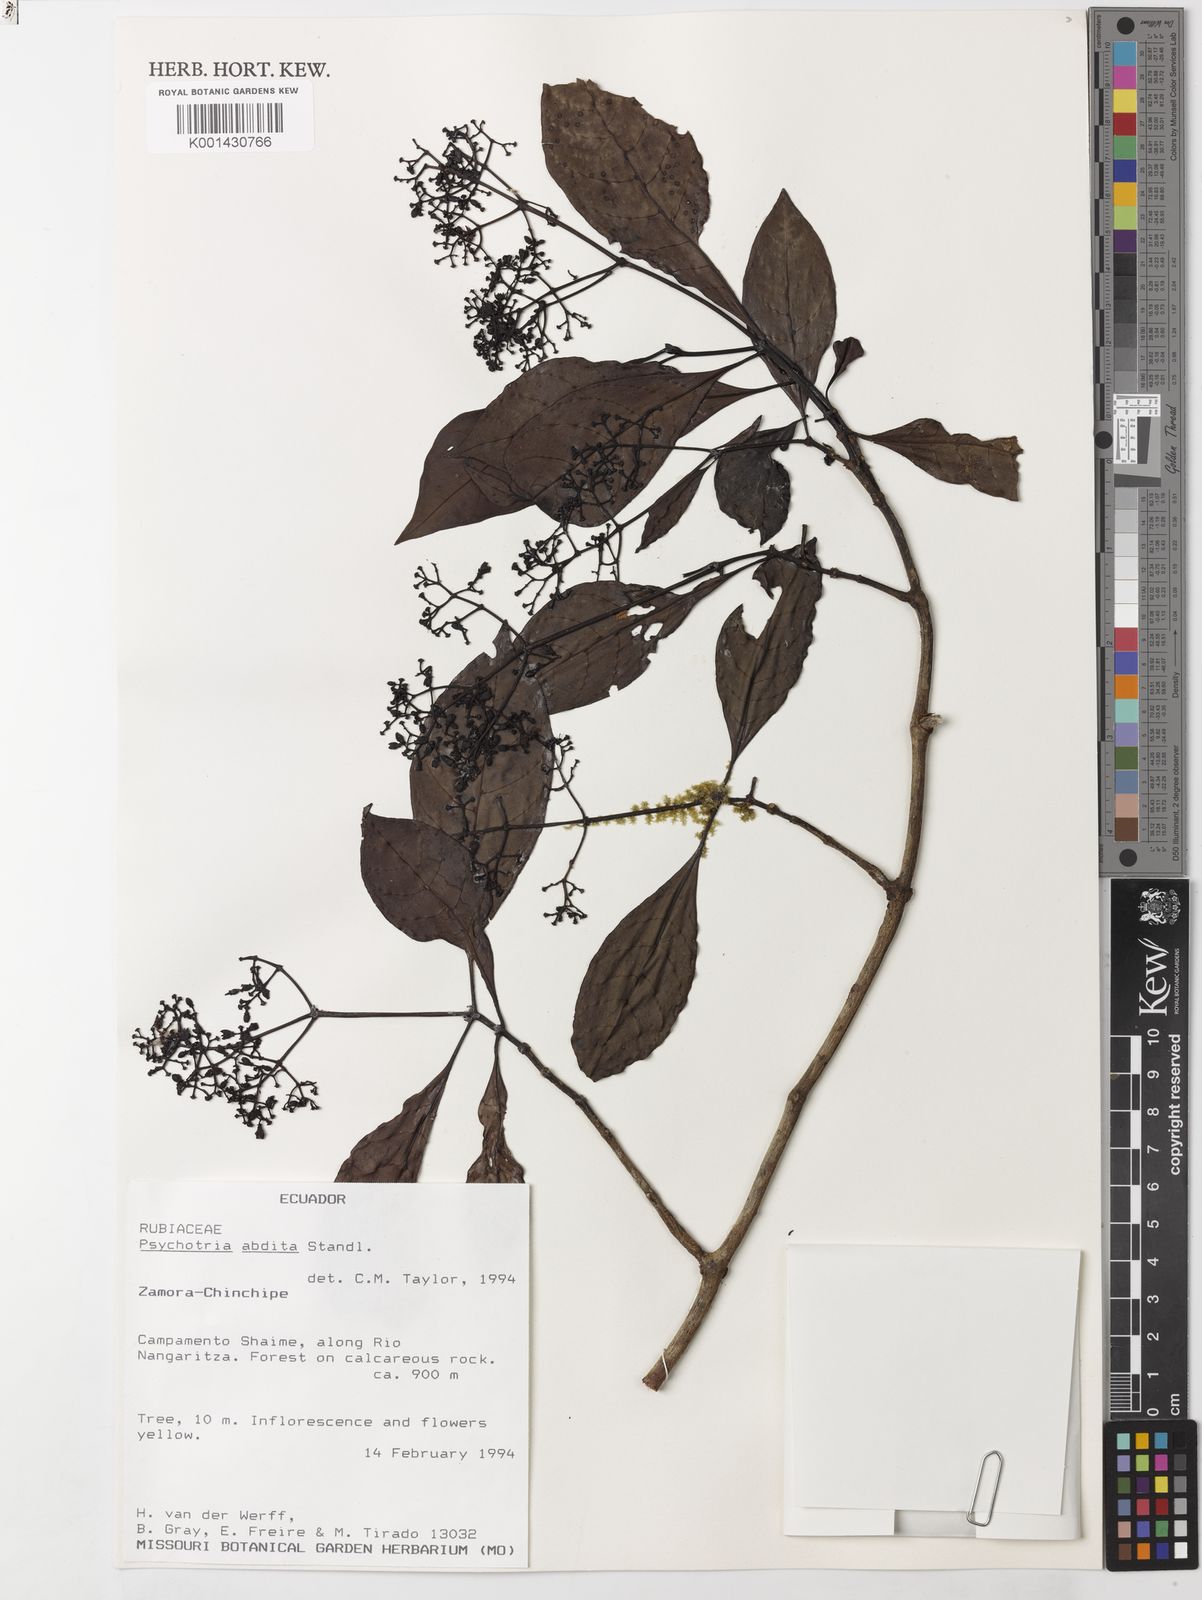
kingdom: Plantae
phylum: Tracheophyta
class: Magnoliopsida
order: Gentianales
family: Rubiaceae
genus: Psychotria
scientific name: Psychotria abdita
